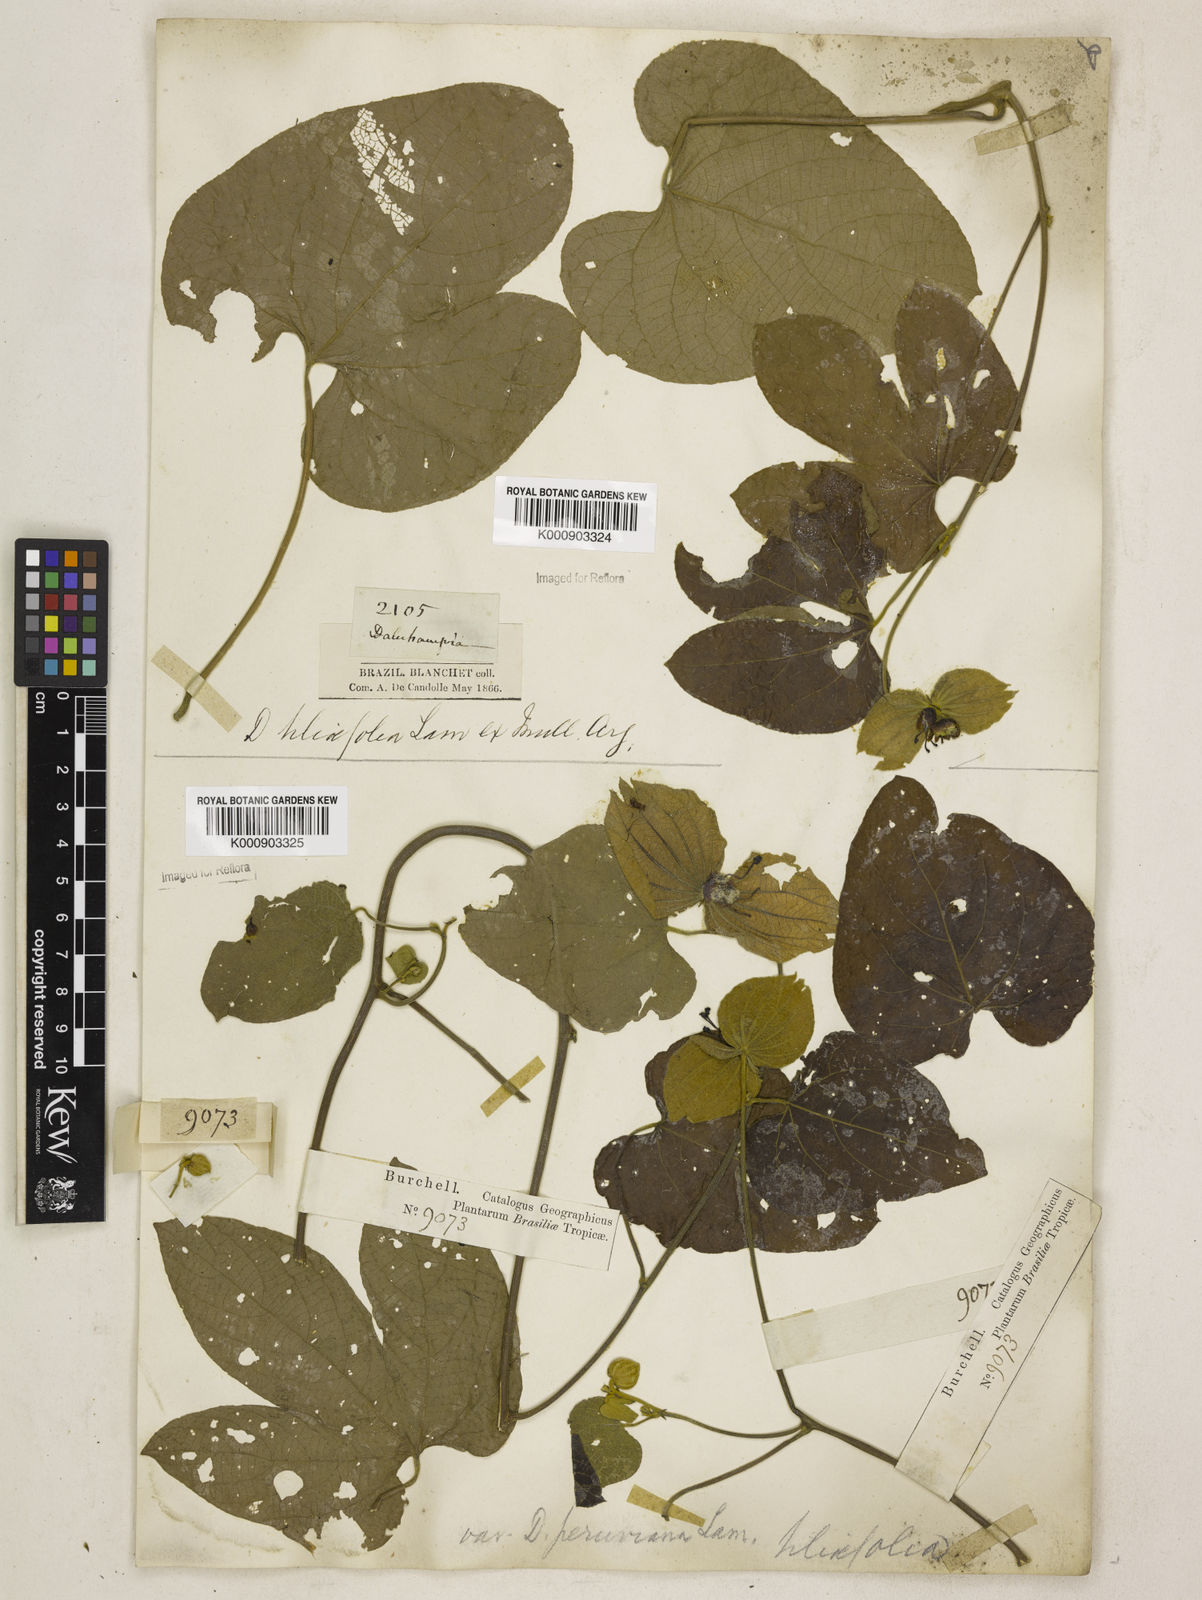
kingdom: Plantae
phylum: Tracheophyta
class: Magnoliopsida
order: Malpighiales
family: Euphorbiaceae
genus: Dalechampia
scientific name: Dalechampia tiliifolia
